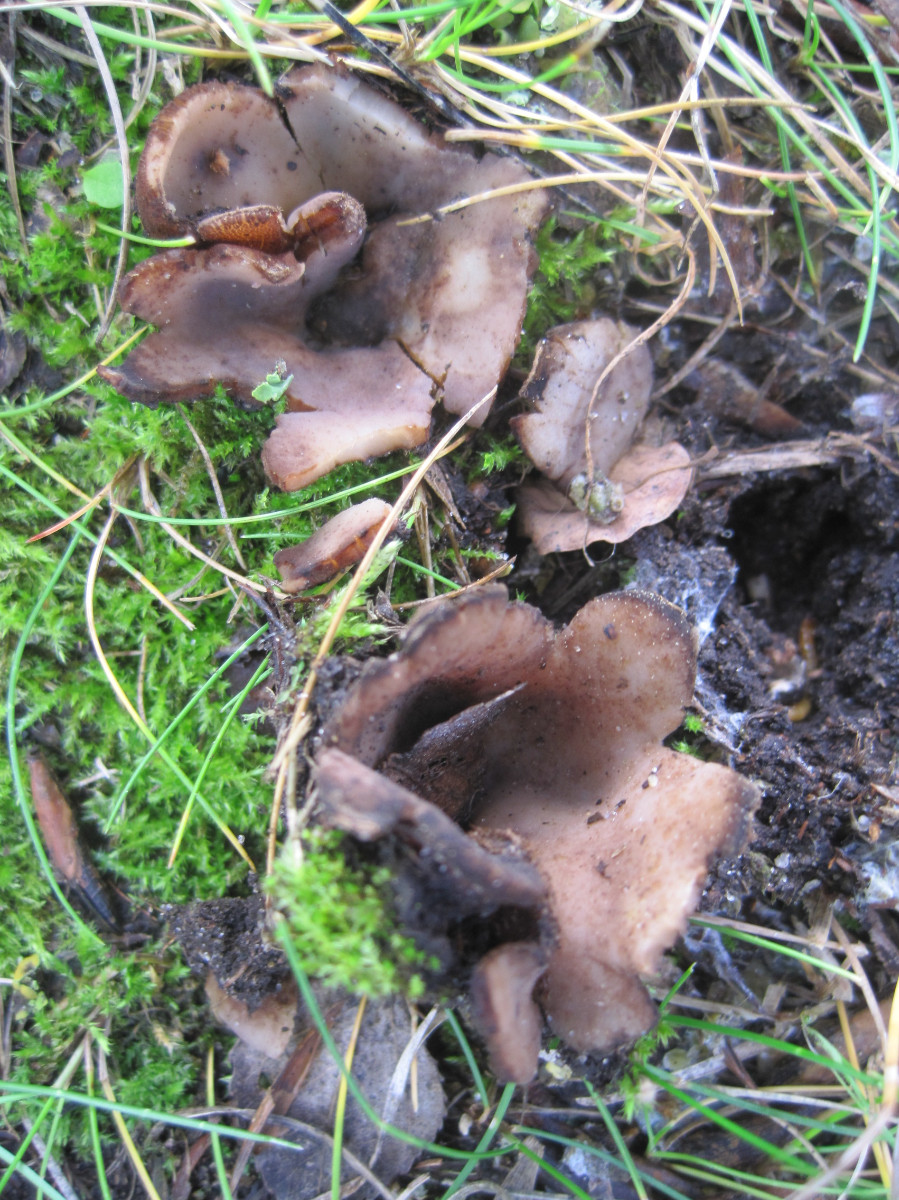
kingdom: Fungi
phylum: Ascomycota
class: Pezizomycetes
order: Pezizales
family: Pyronemataceae
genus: Geopora
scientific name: Geopora
